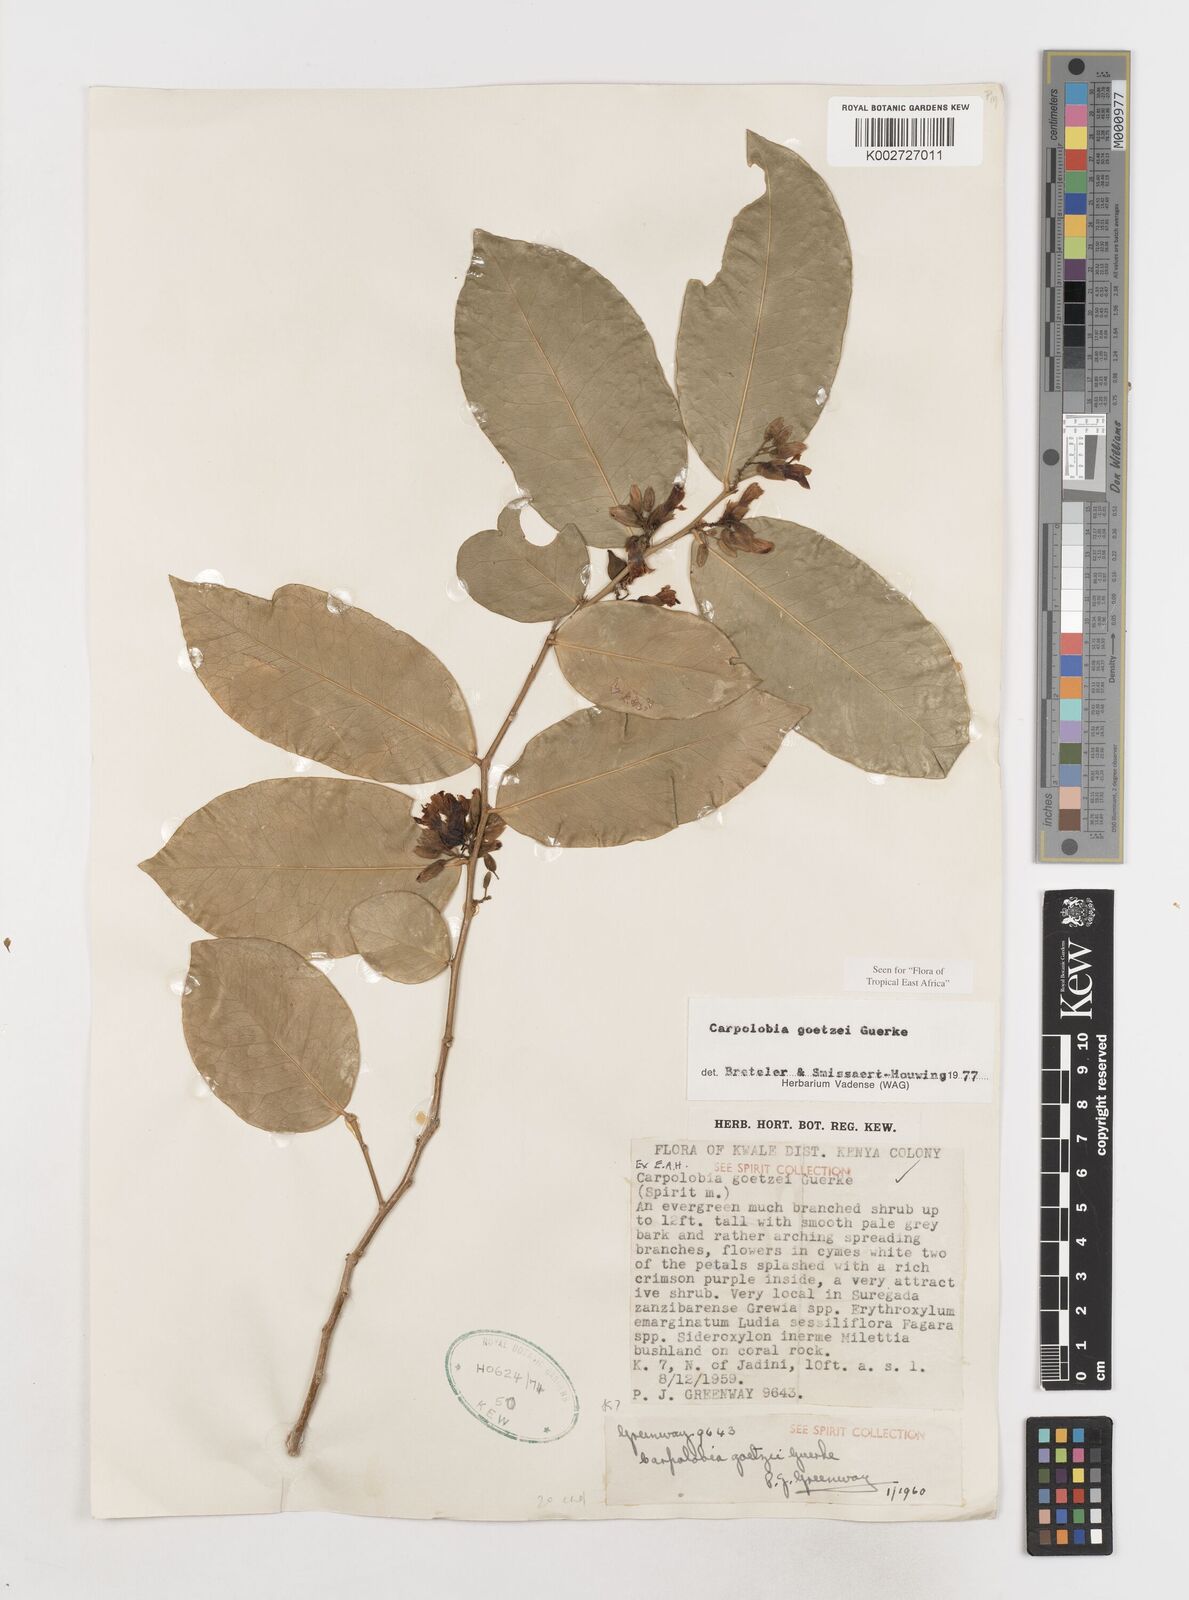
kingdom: Plantae
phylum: Tracheophyta
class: Magnoliopsida
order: Fabales
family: Polygalaceae
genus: Carpolobia
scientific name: Carpolobia goetzei
